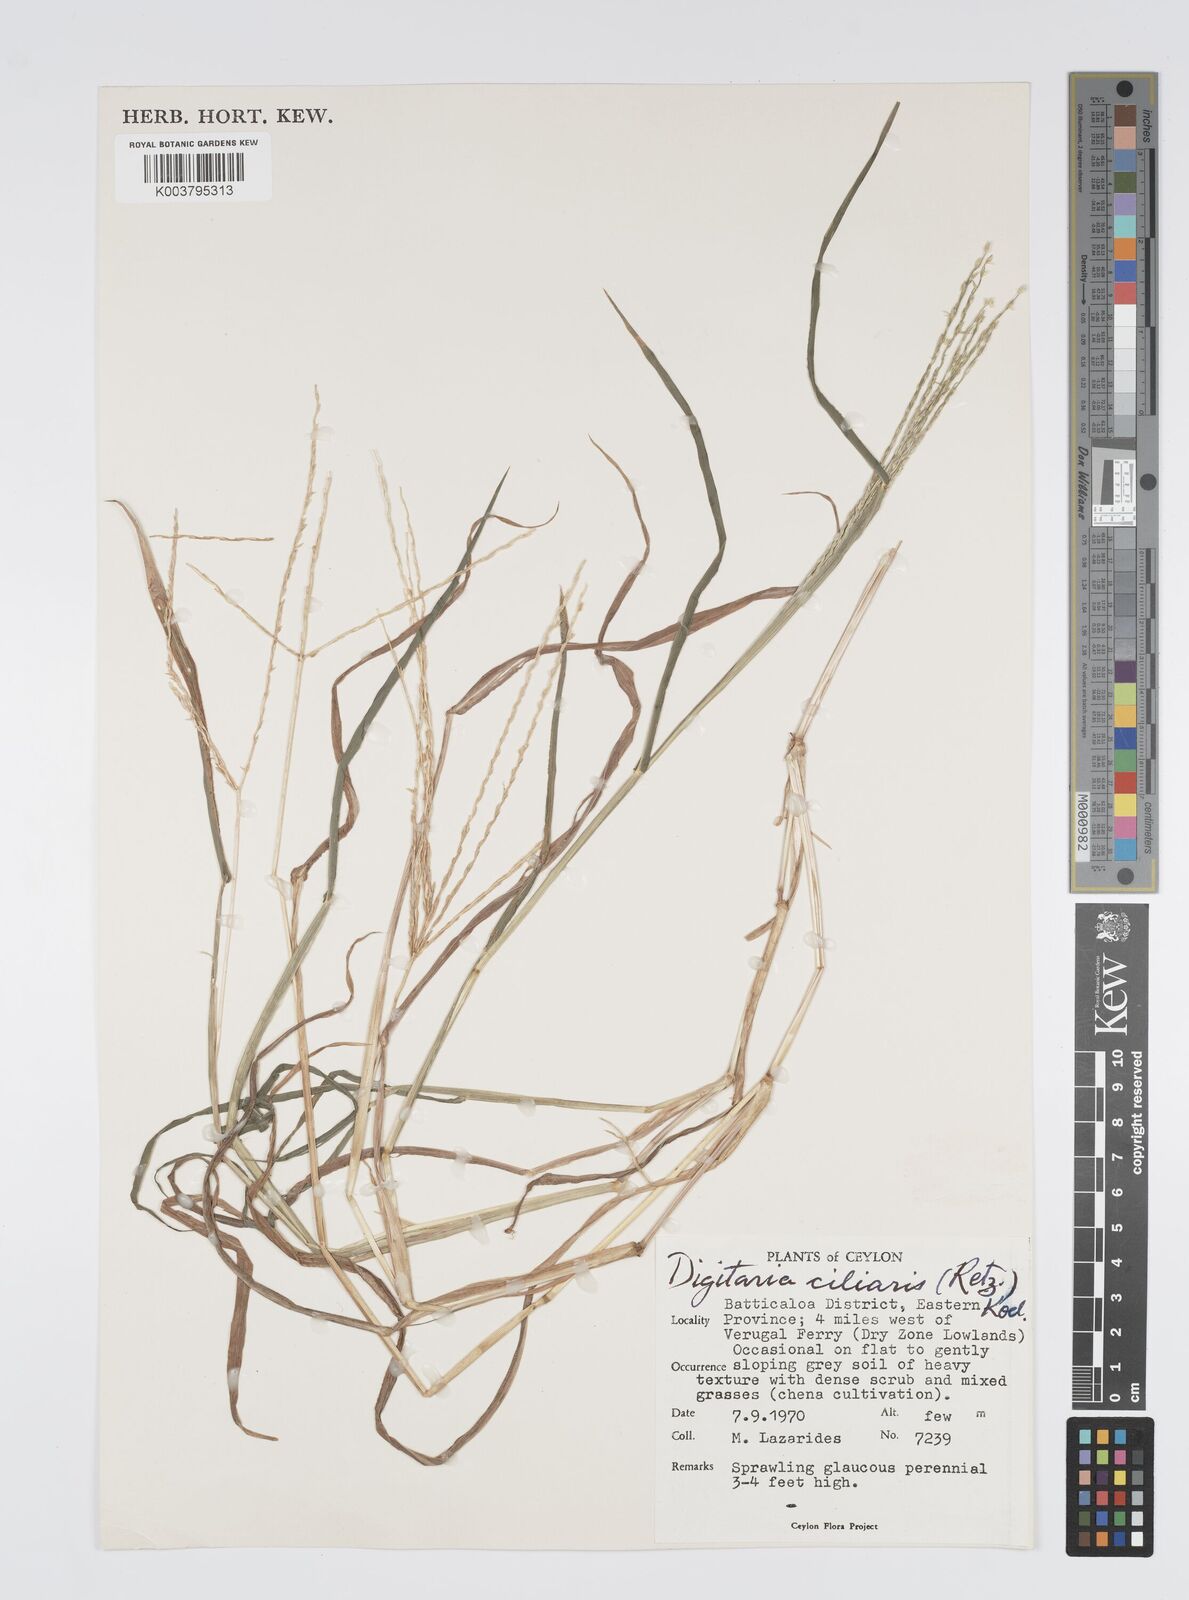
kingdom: Plantae
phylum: Tracheophyta
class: Liliopsida
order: Poales
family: Poaceae
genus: Digitaria
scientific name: Digitaria ciliaris
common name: Tropical finger-grass
